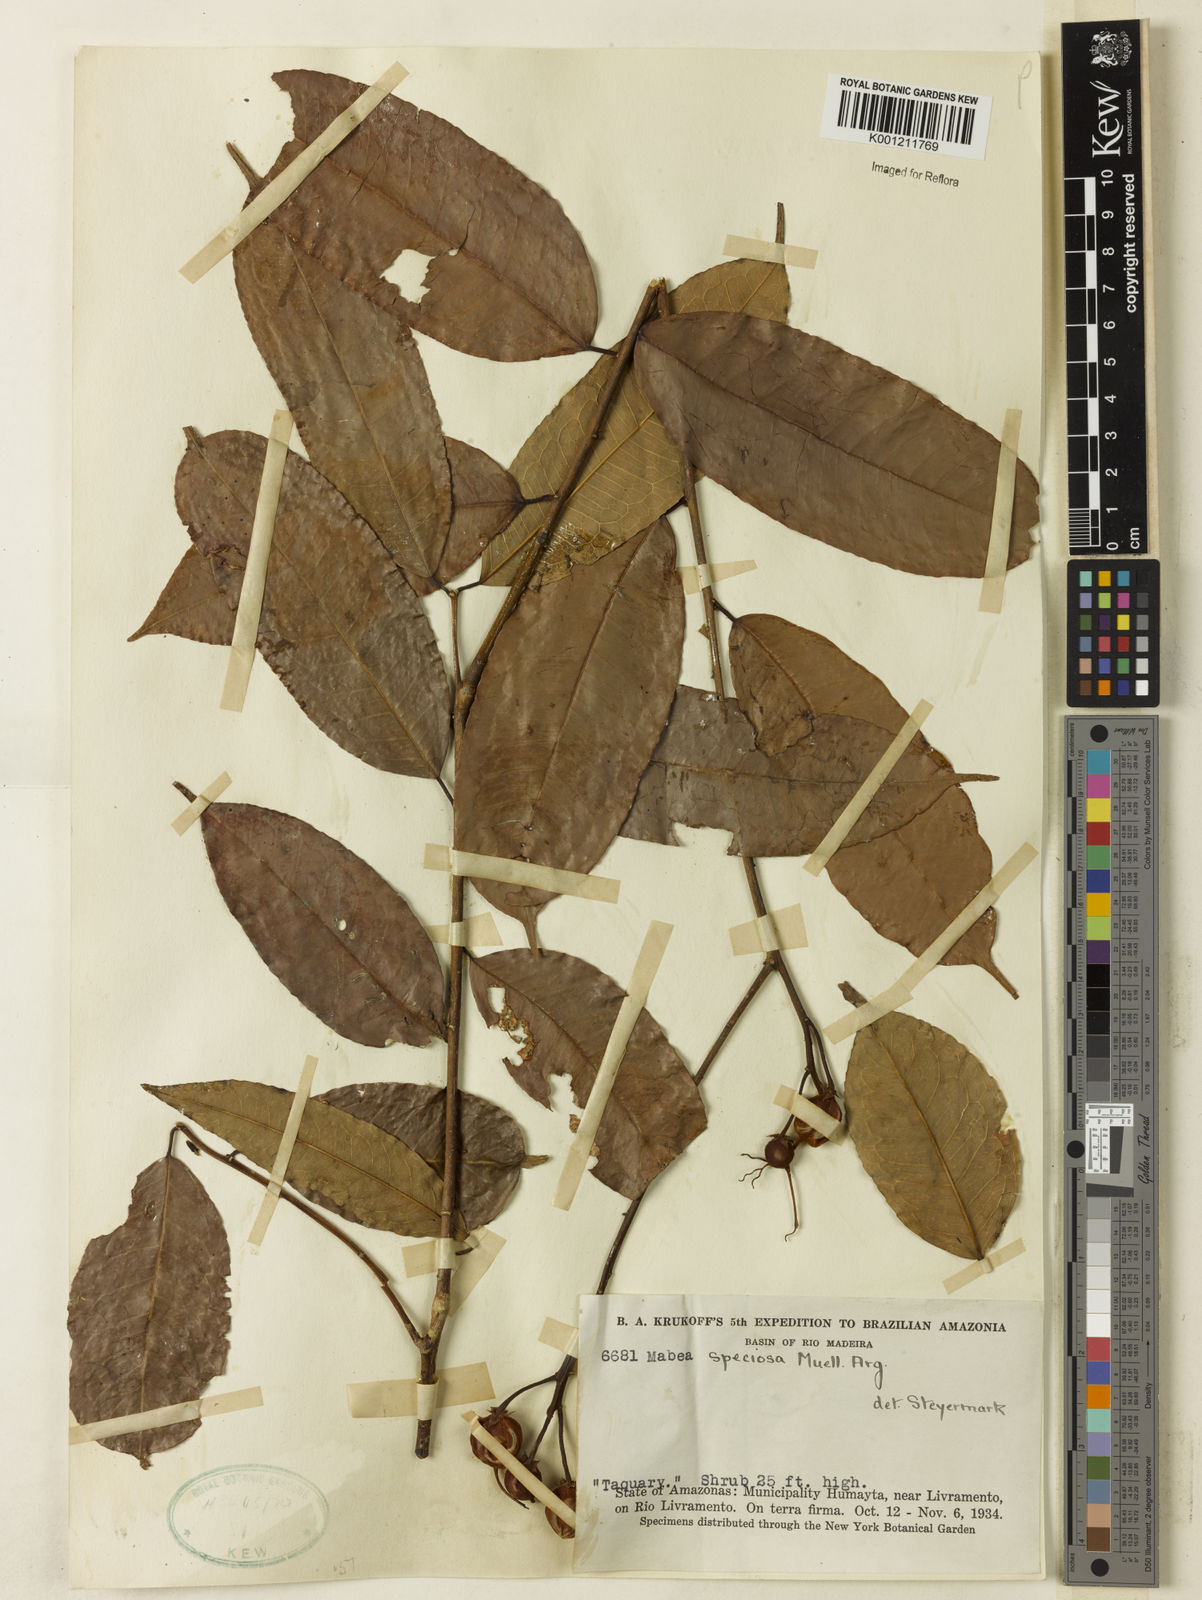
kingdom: Plantae
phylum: Tracheophyta
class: Magnoliopsida
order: Malpighiales
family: Euphorbiaceae
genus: Mabea
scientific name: Mabea
